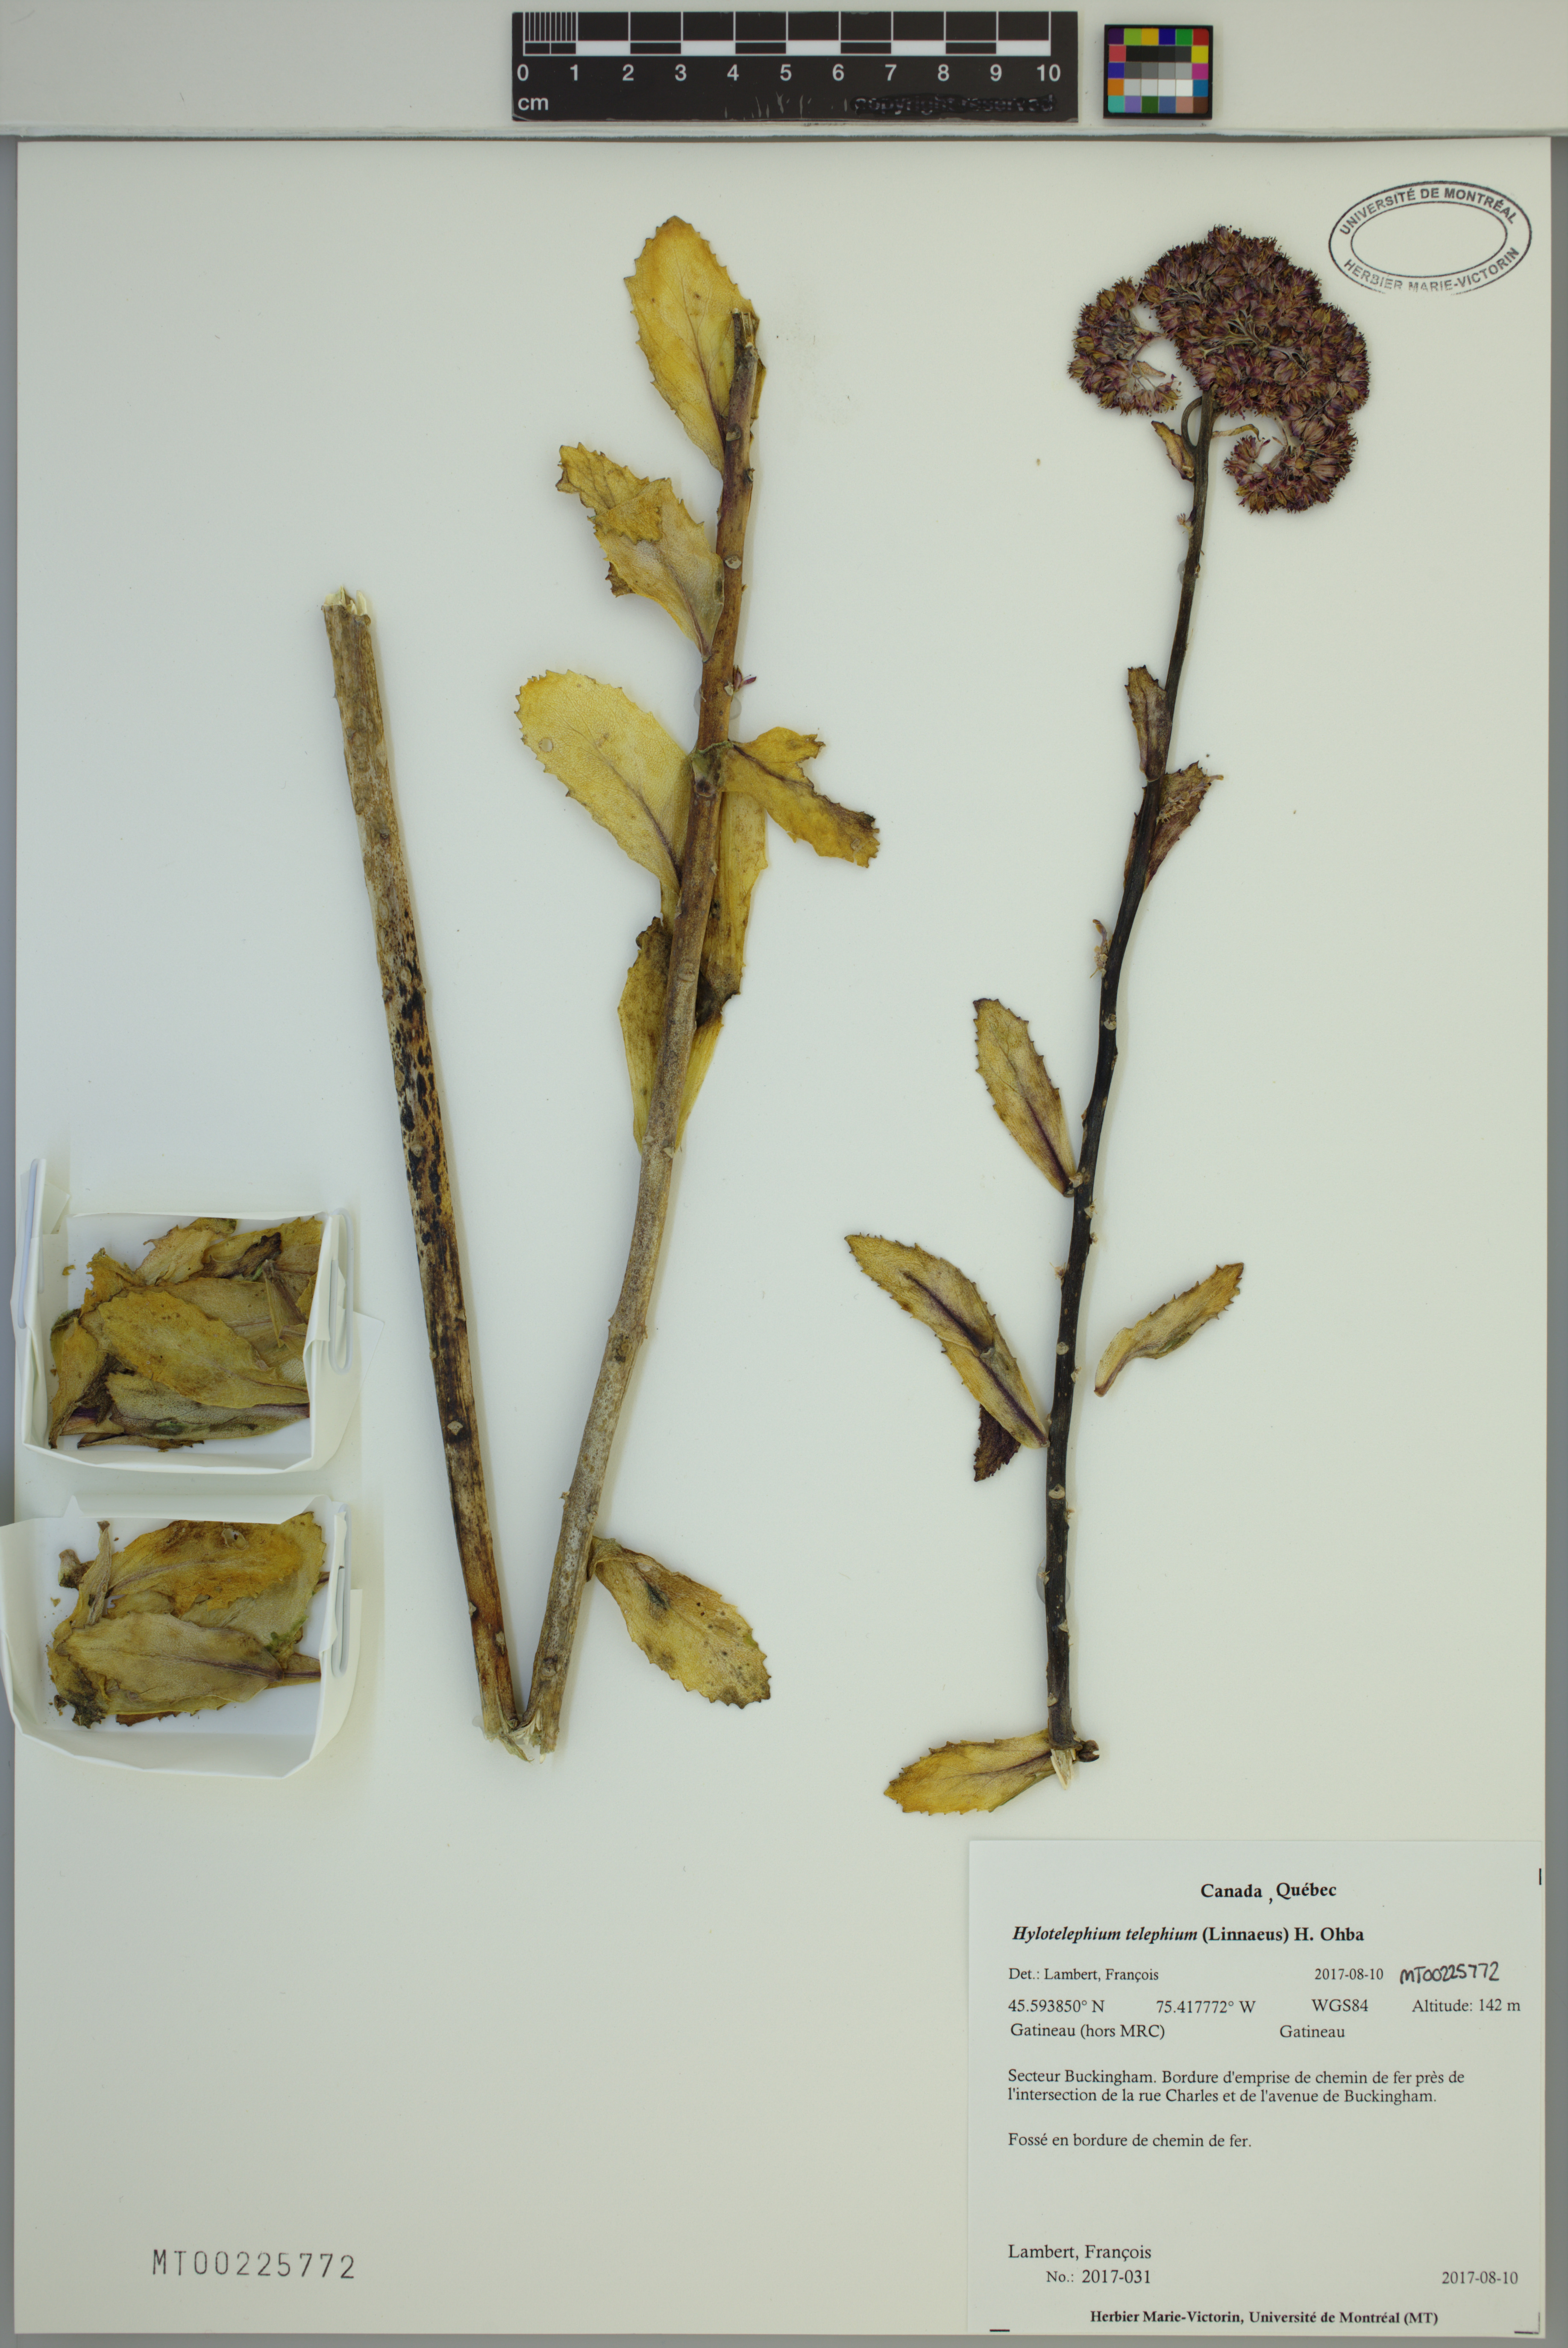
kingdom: Plantae
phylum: Tracheophyta
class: Magnoliopsida
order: Saxifragales
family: Crassulaceae
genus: Hylotelephium
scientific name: Hylotelephium telephium
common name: Live-forever
